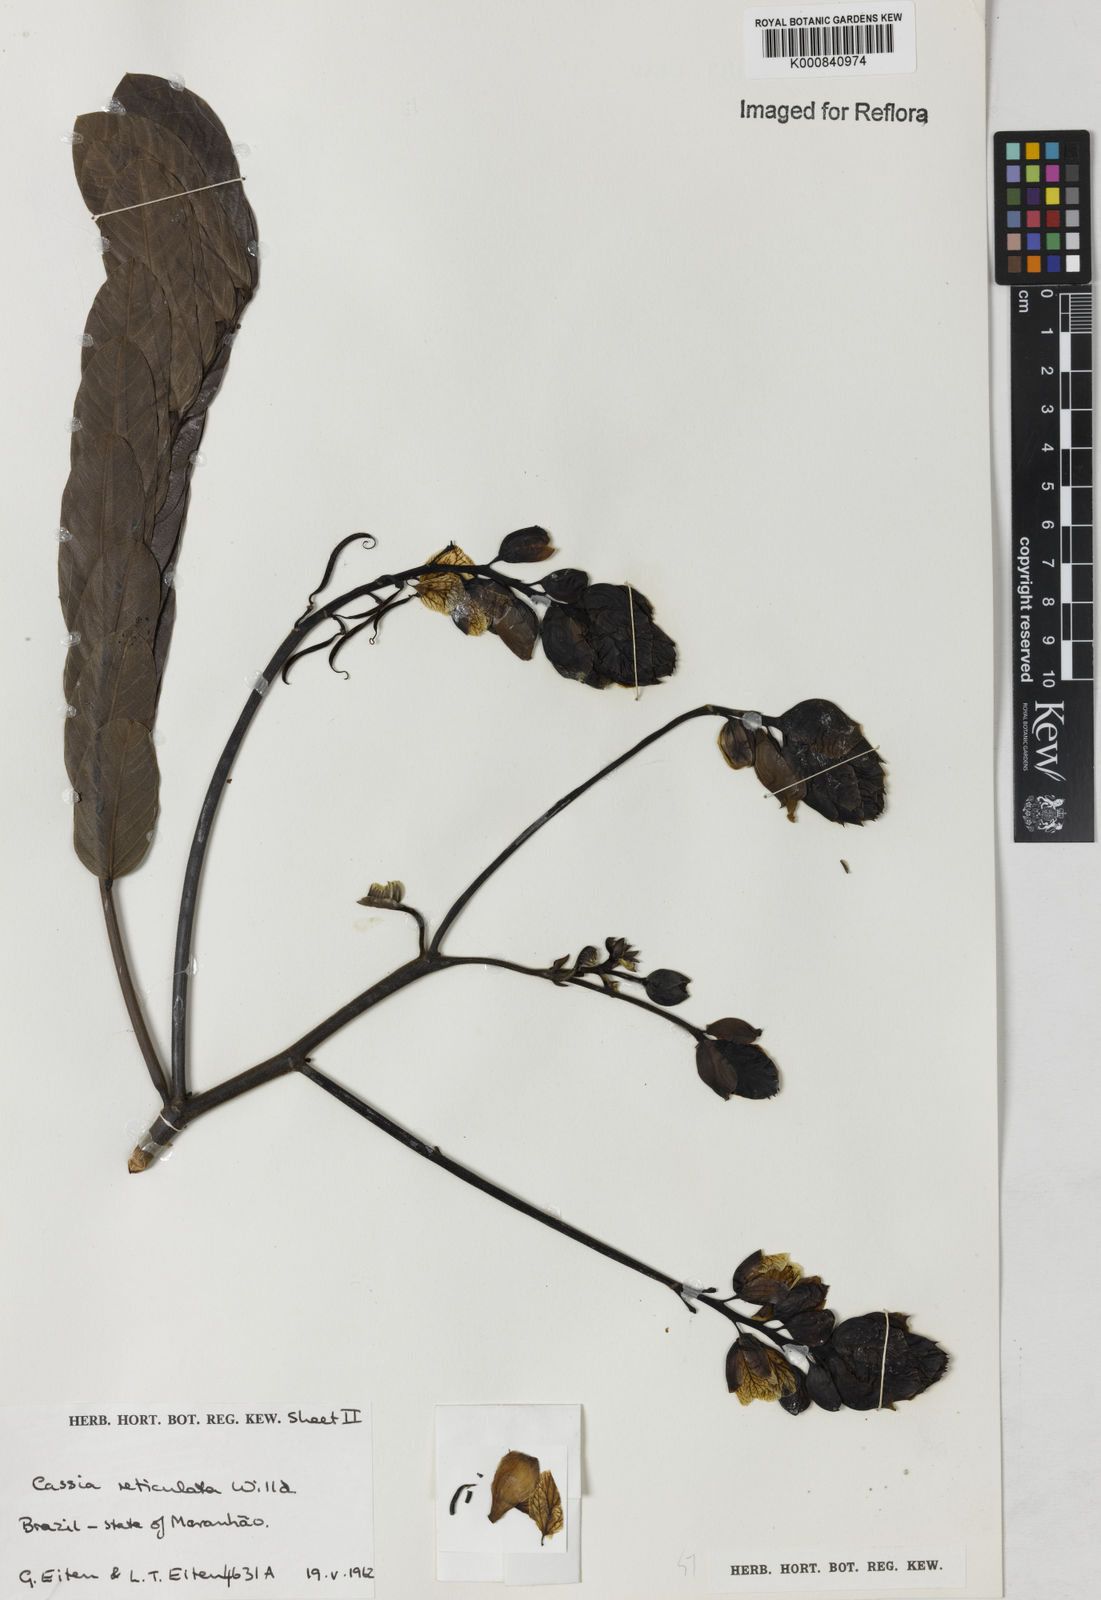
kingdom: Plantae
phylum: Tracheophyta
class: Magnoliopsida
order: Fabales
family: Fabaceae
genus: Senna
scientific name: Senna reticulata
